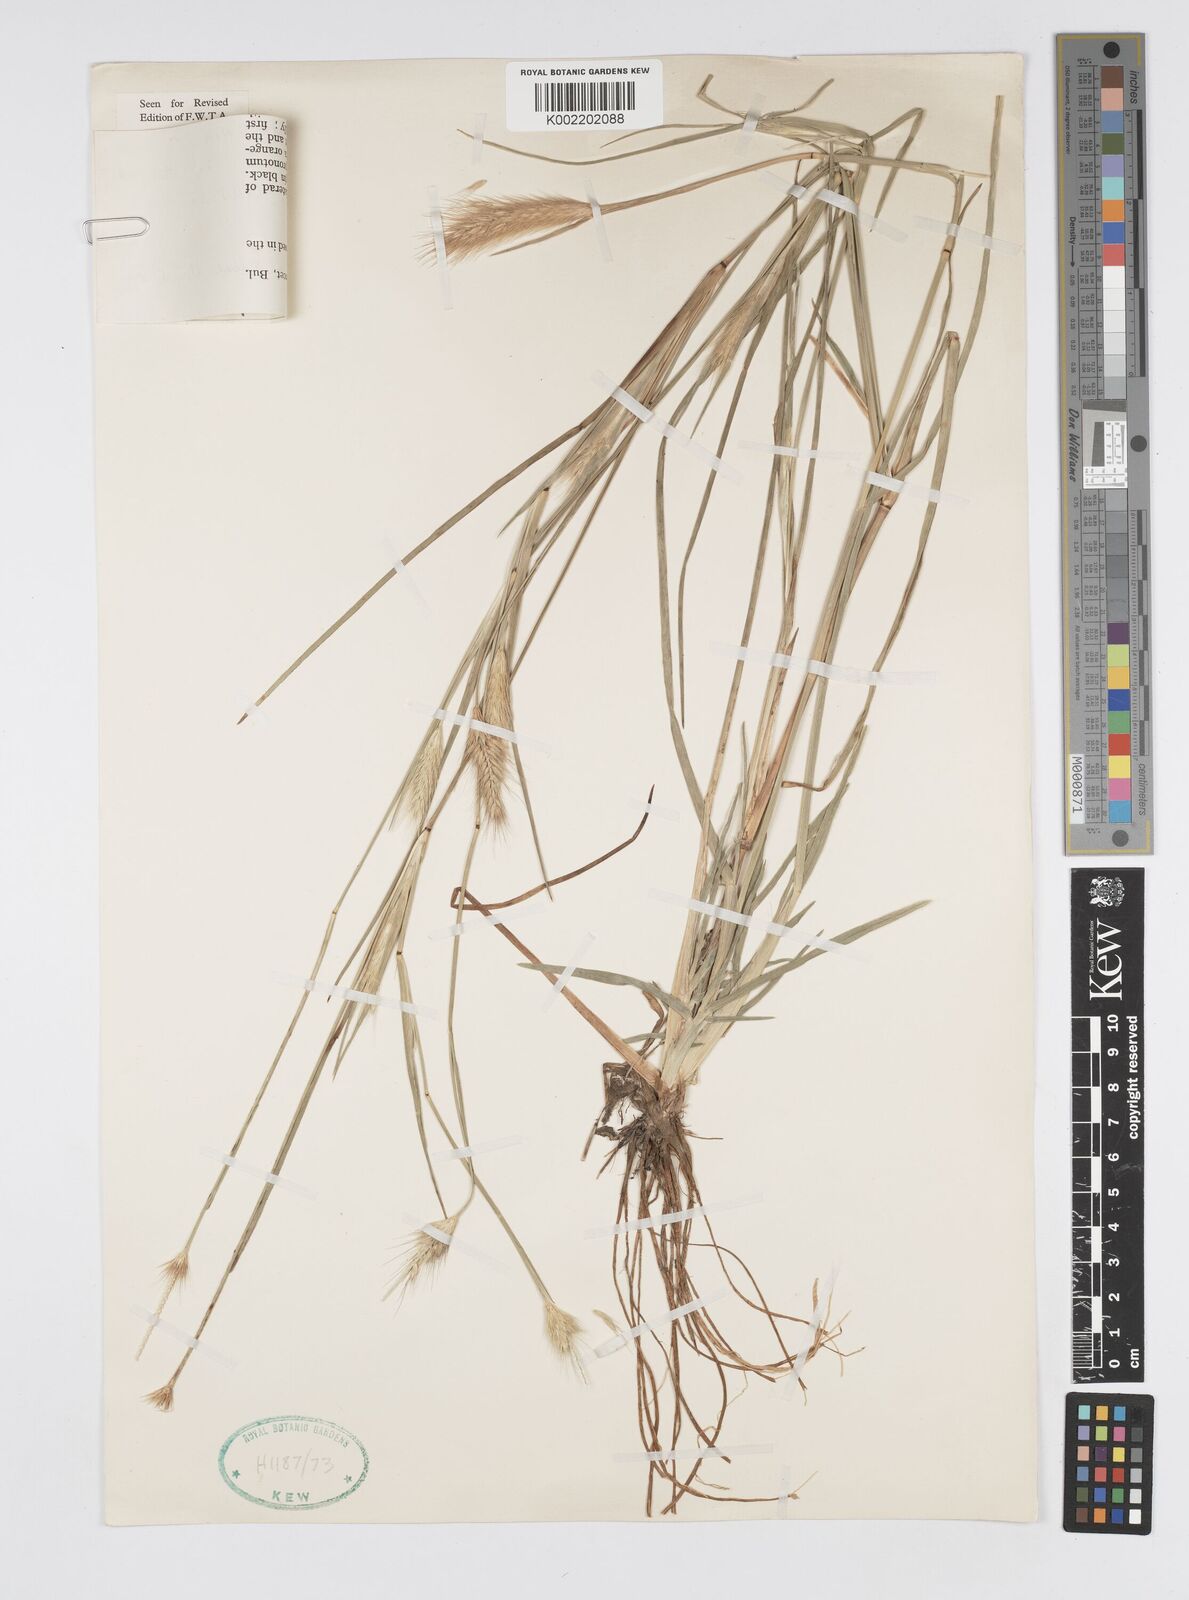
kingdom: Plantae
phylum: Tracheophyta
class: Liliopsida
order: Poales
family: Poaceae
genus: Cenchrus
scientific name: Cenchrus ramosus
